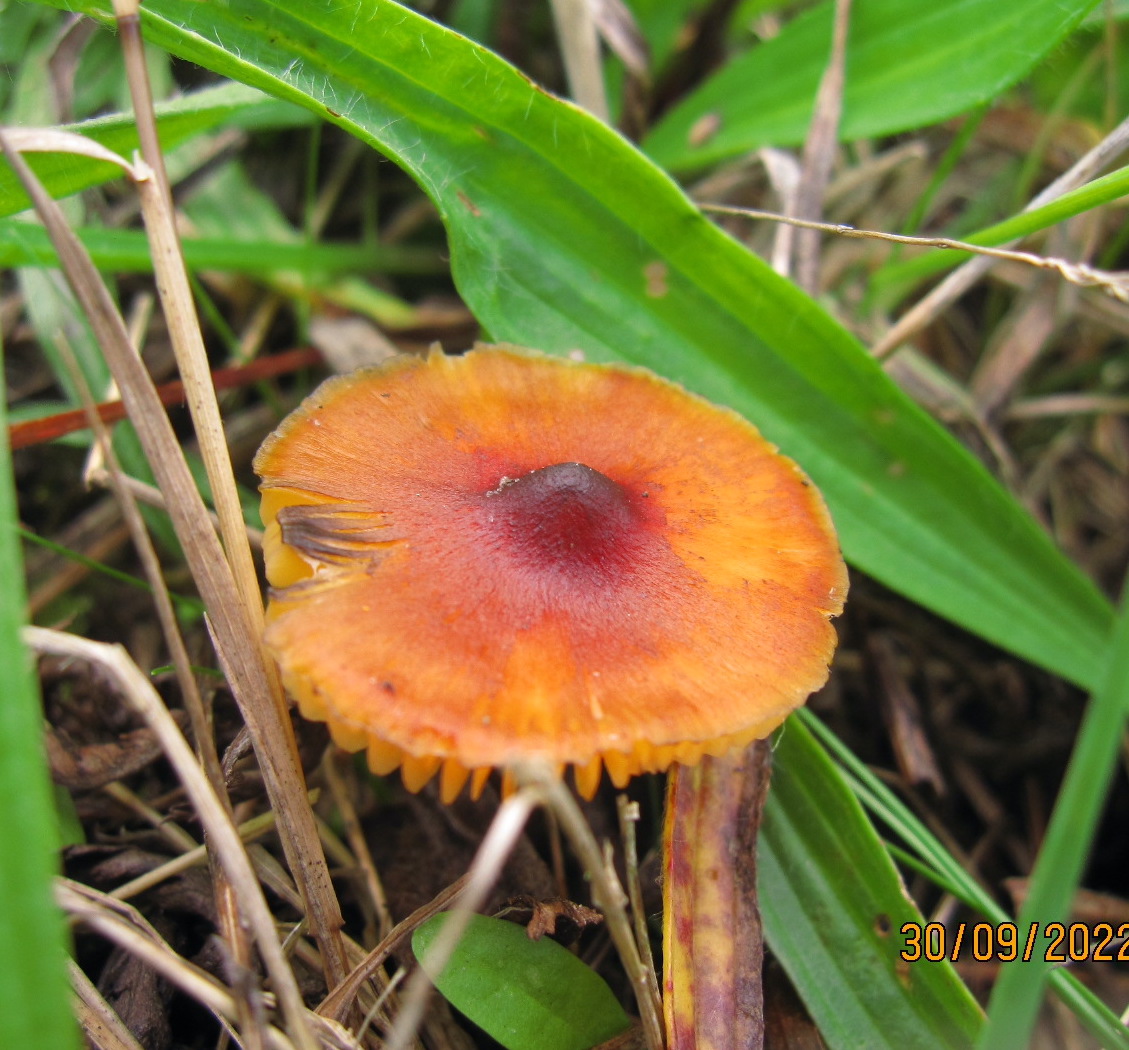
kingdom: Fungi
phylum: Basidiomycota
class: Agaricomycetes
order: Agaricales
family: Hygrophoraceae
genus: Hygrocybe
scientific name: Hygrocybe conica
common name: kegle-vokshat
